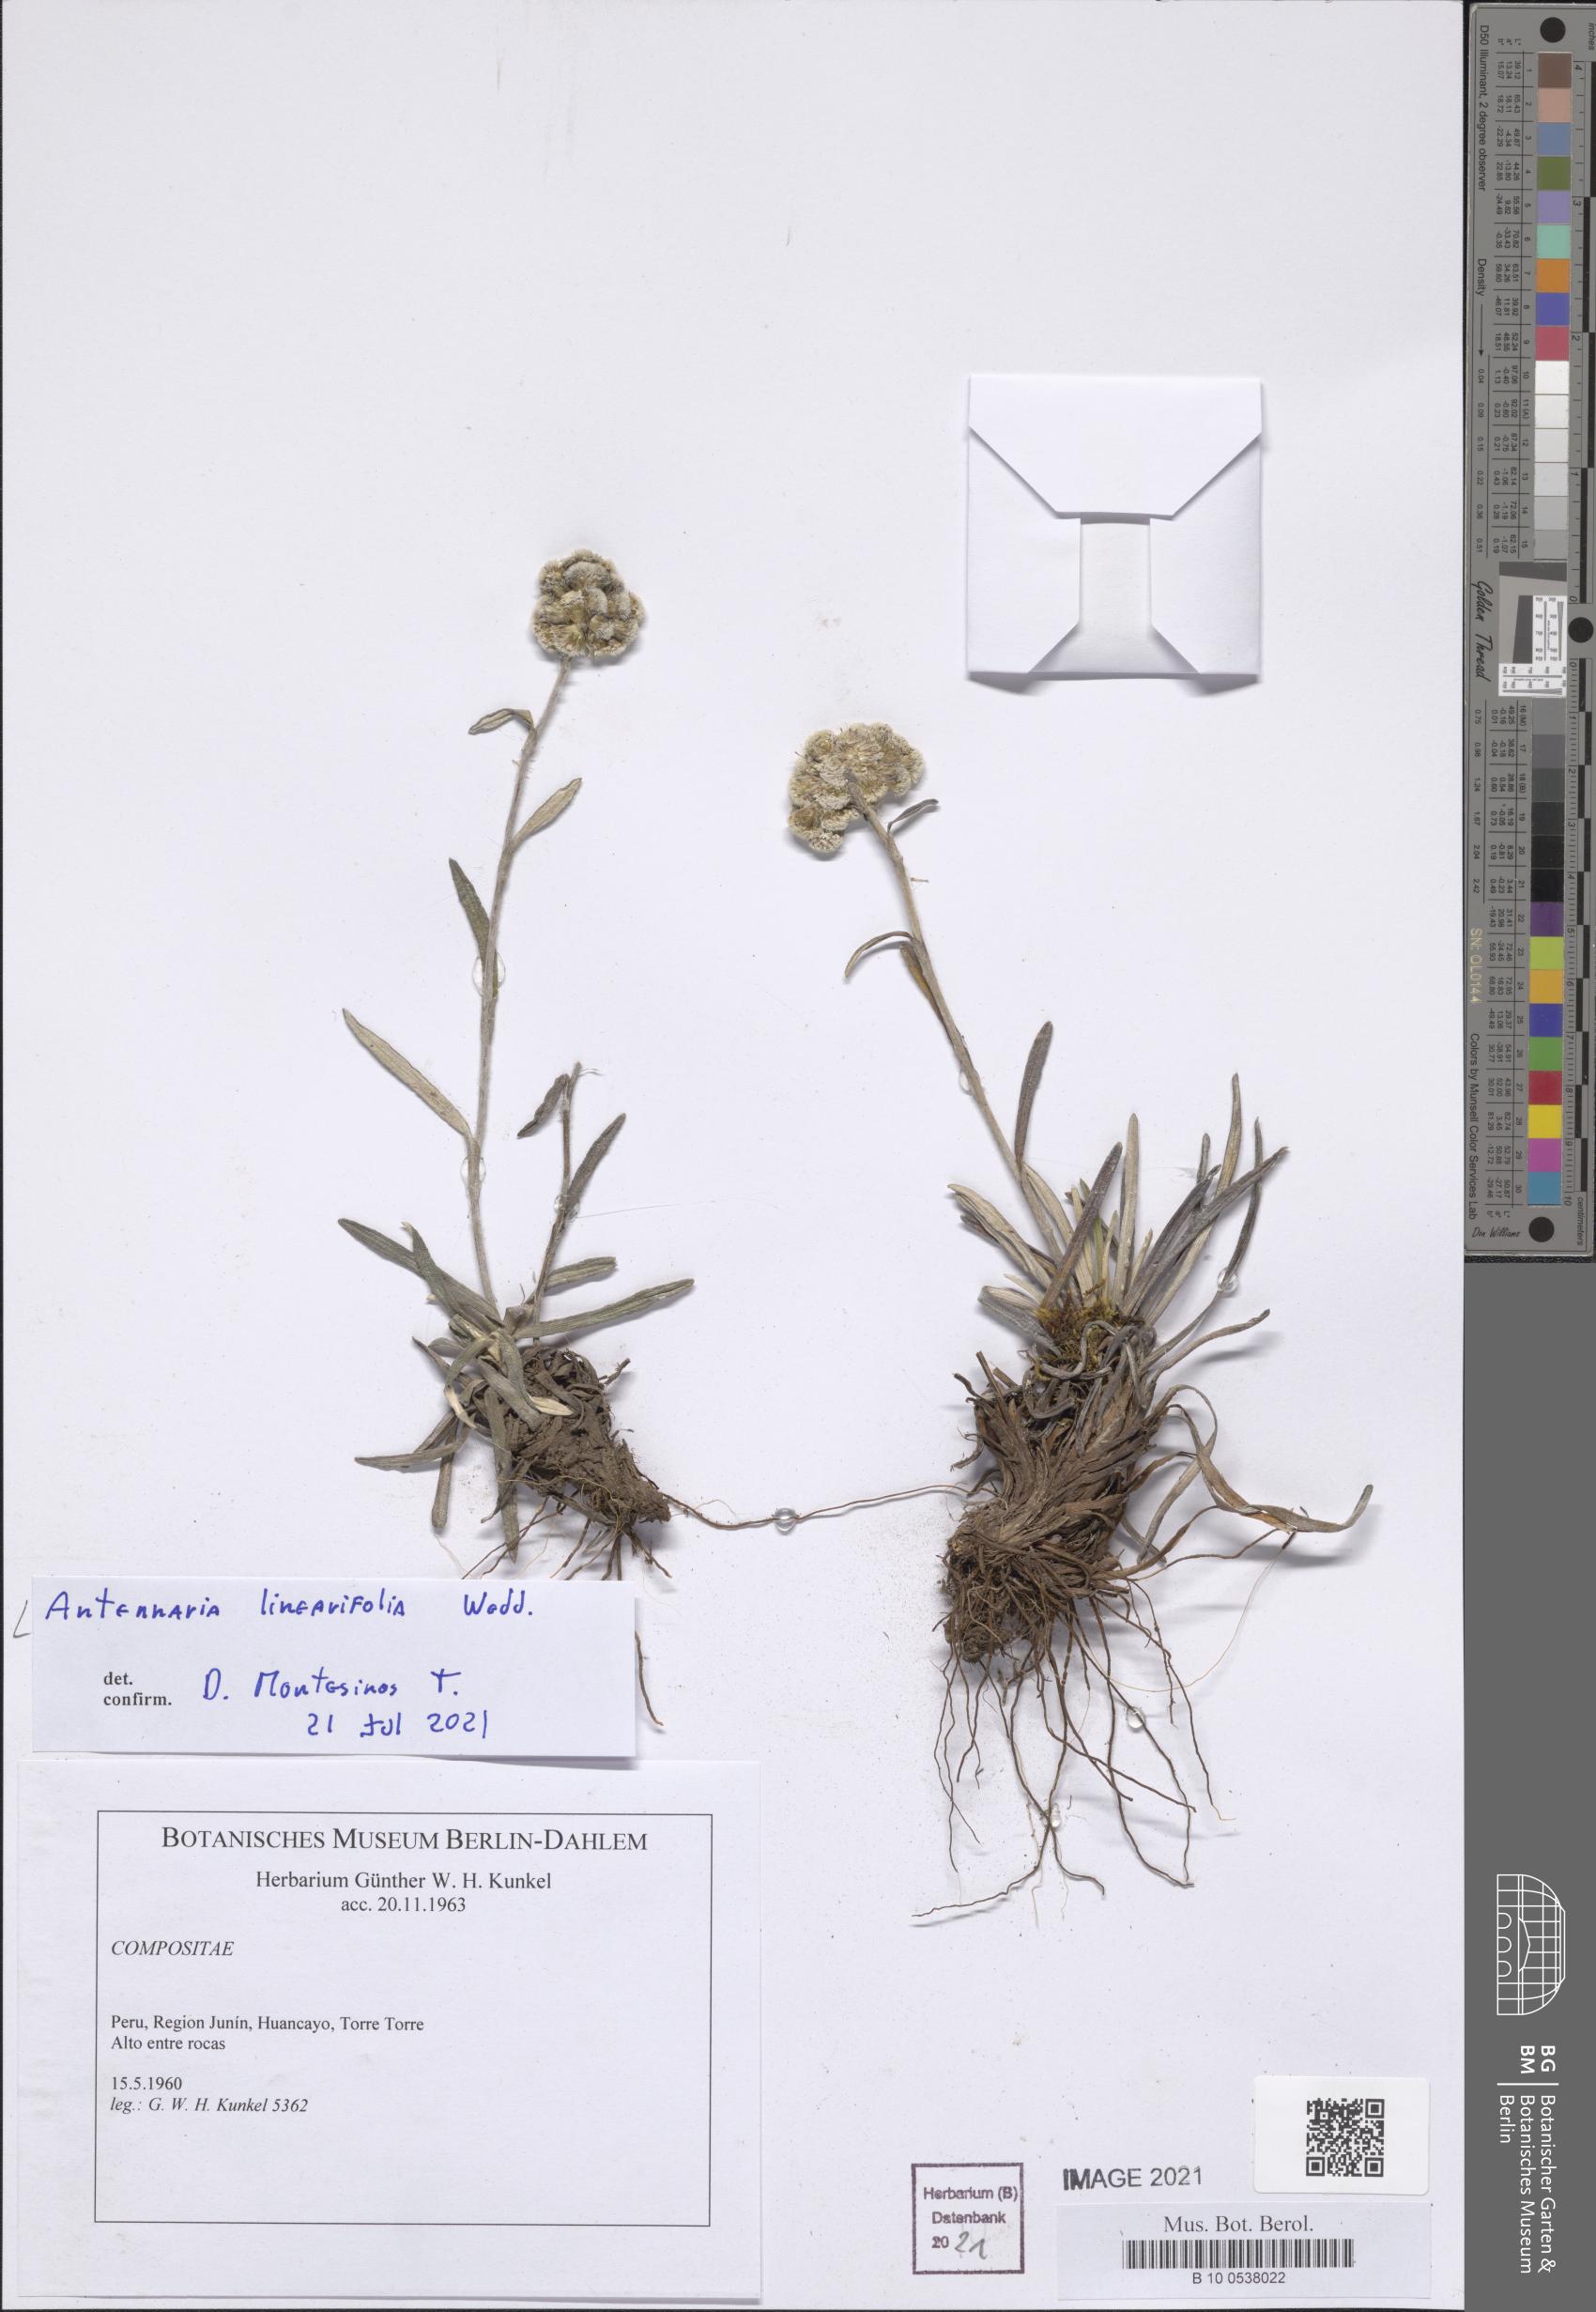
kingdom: Plantae
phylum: Tracheophyta
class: Magnoliopsida
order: Asterales
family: Asteraceae
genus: Quasiantennaria
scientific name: Quasiantennaria linearifolia
